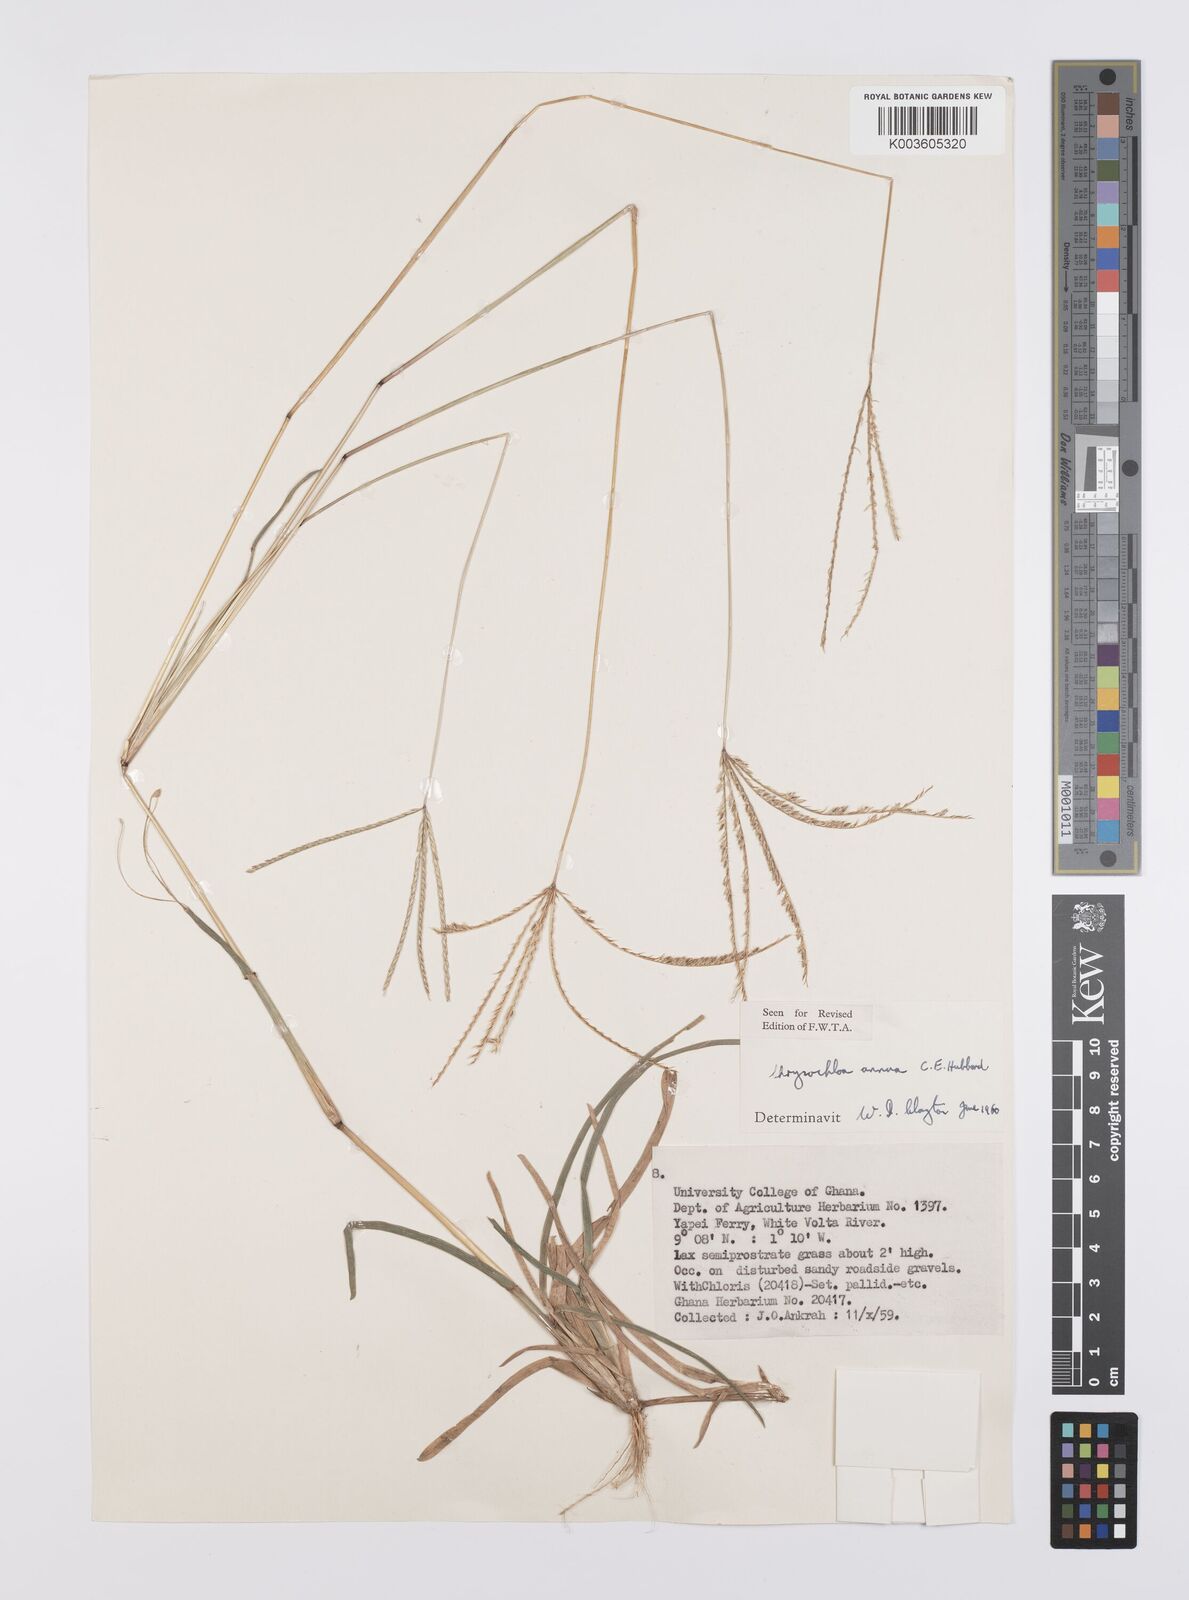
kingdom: Plantae
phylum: Tracheophyta
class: Liliopsida
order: Poales
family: Poaceae
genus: Chrysochloa
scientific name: Chrysochloa hindsii
